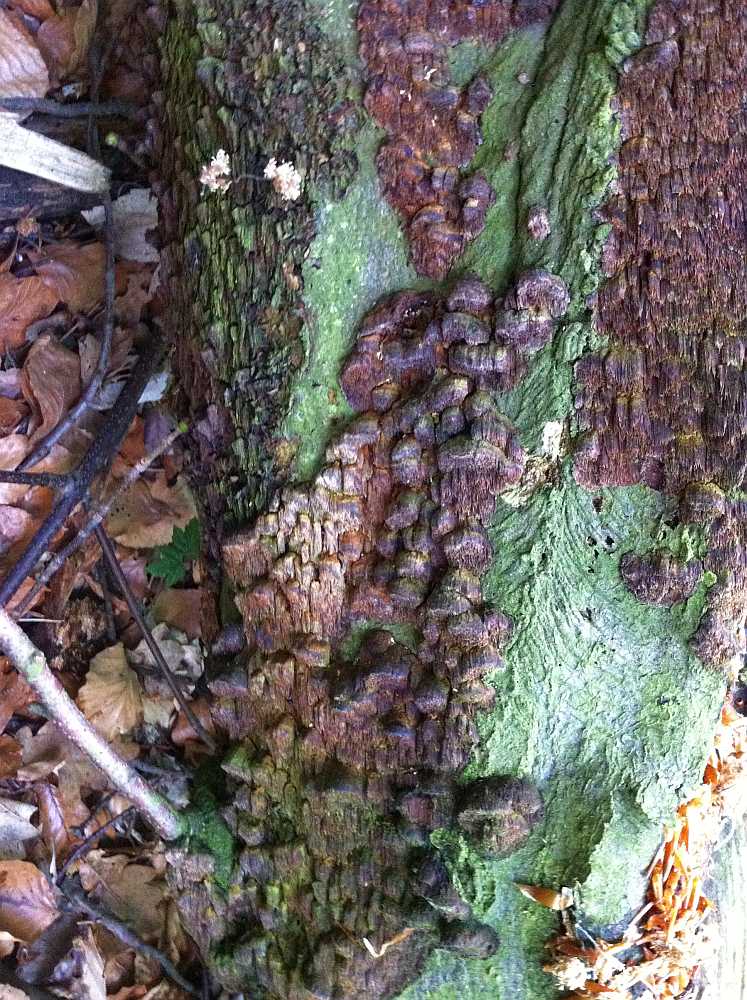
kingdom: Fungi
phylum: Basidiomycota
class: Agaricomycetes
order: Hymenochaetales
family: Hymenochaetaceae
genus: Mensularia
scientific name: Mensularia nodulosa
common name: bøge-spejlporesvamp
